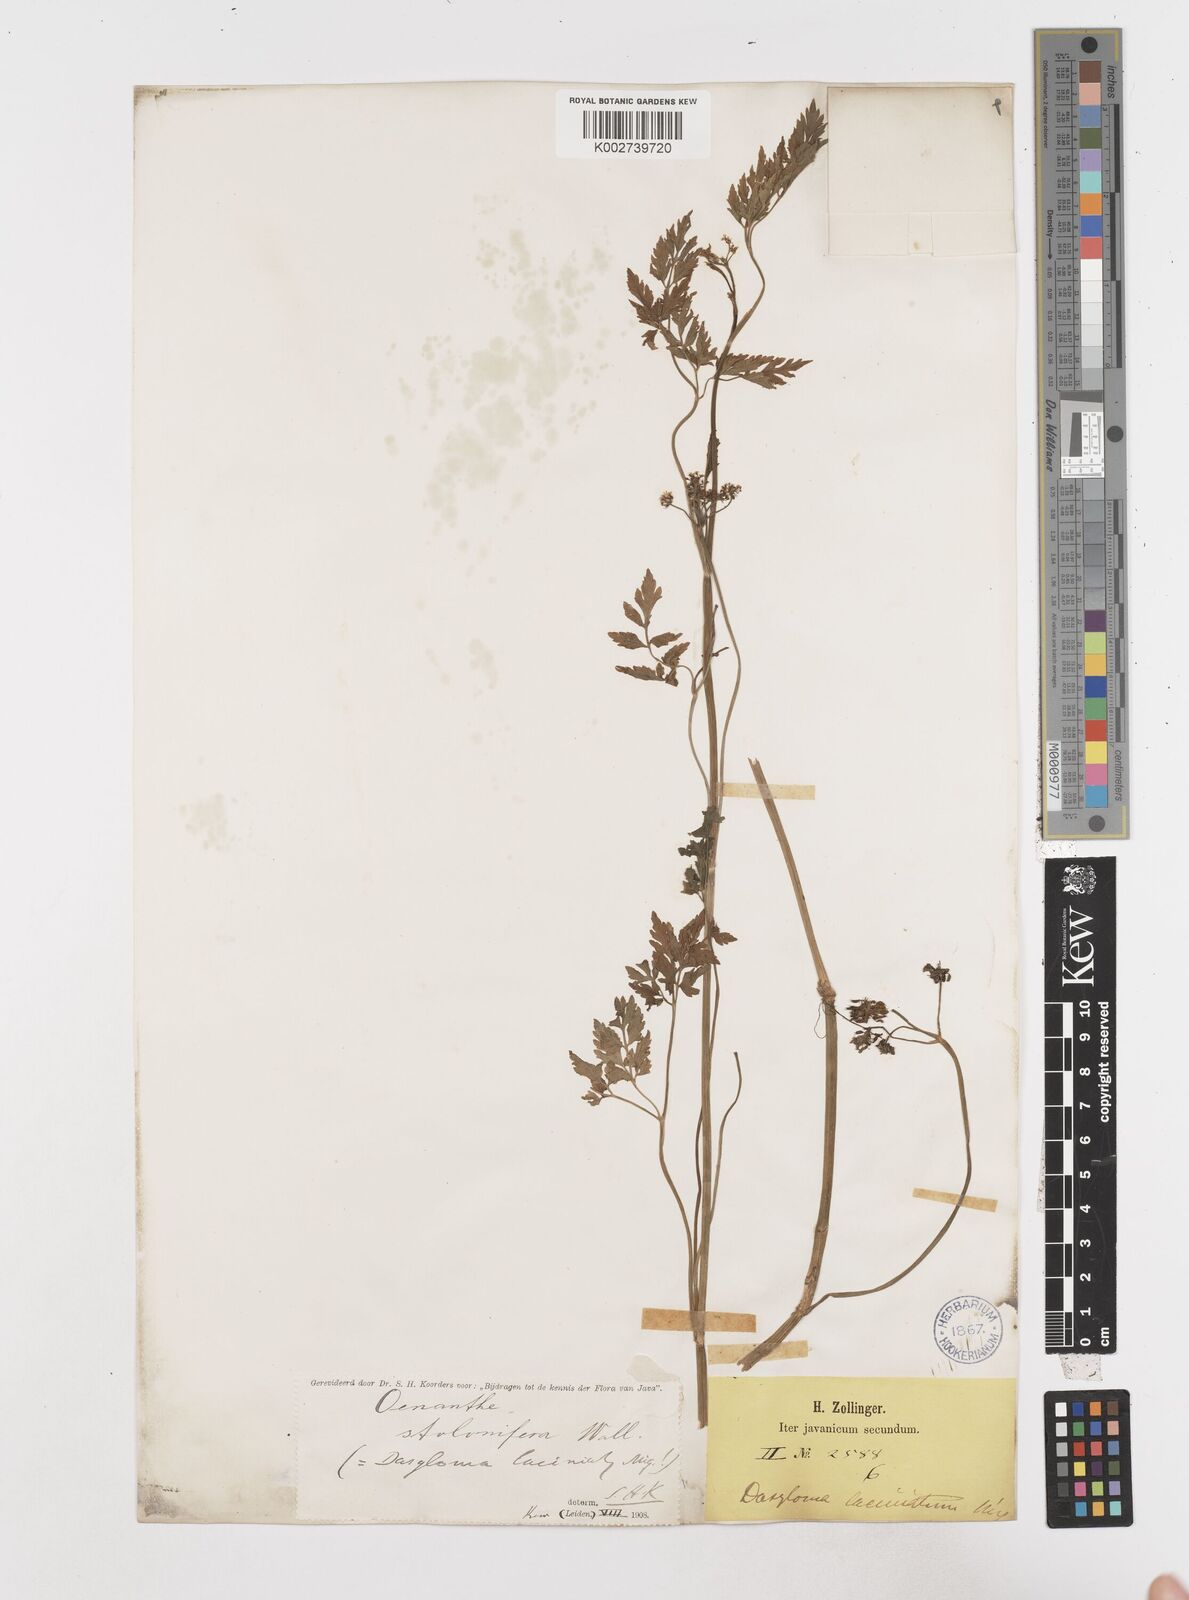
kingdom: Plantae
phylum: Tracheophyta
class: Magnoliopsida
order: Apiales
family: Apiaceae
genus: Oenanthe
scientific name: Oenanthe javanica
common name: Java water-dropwort
